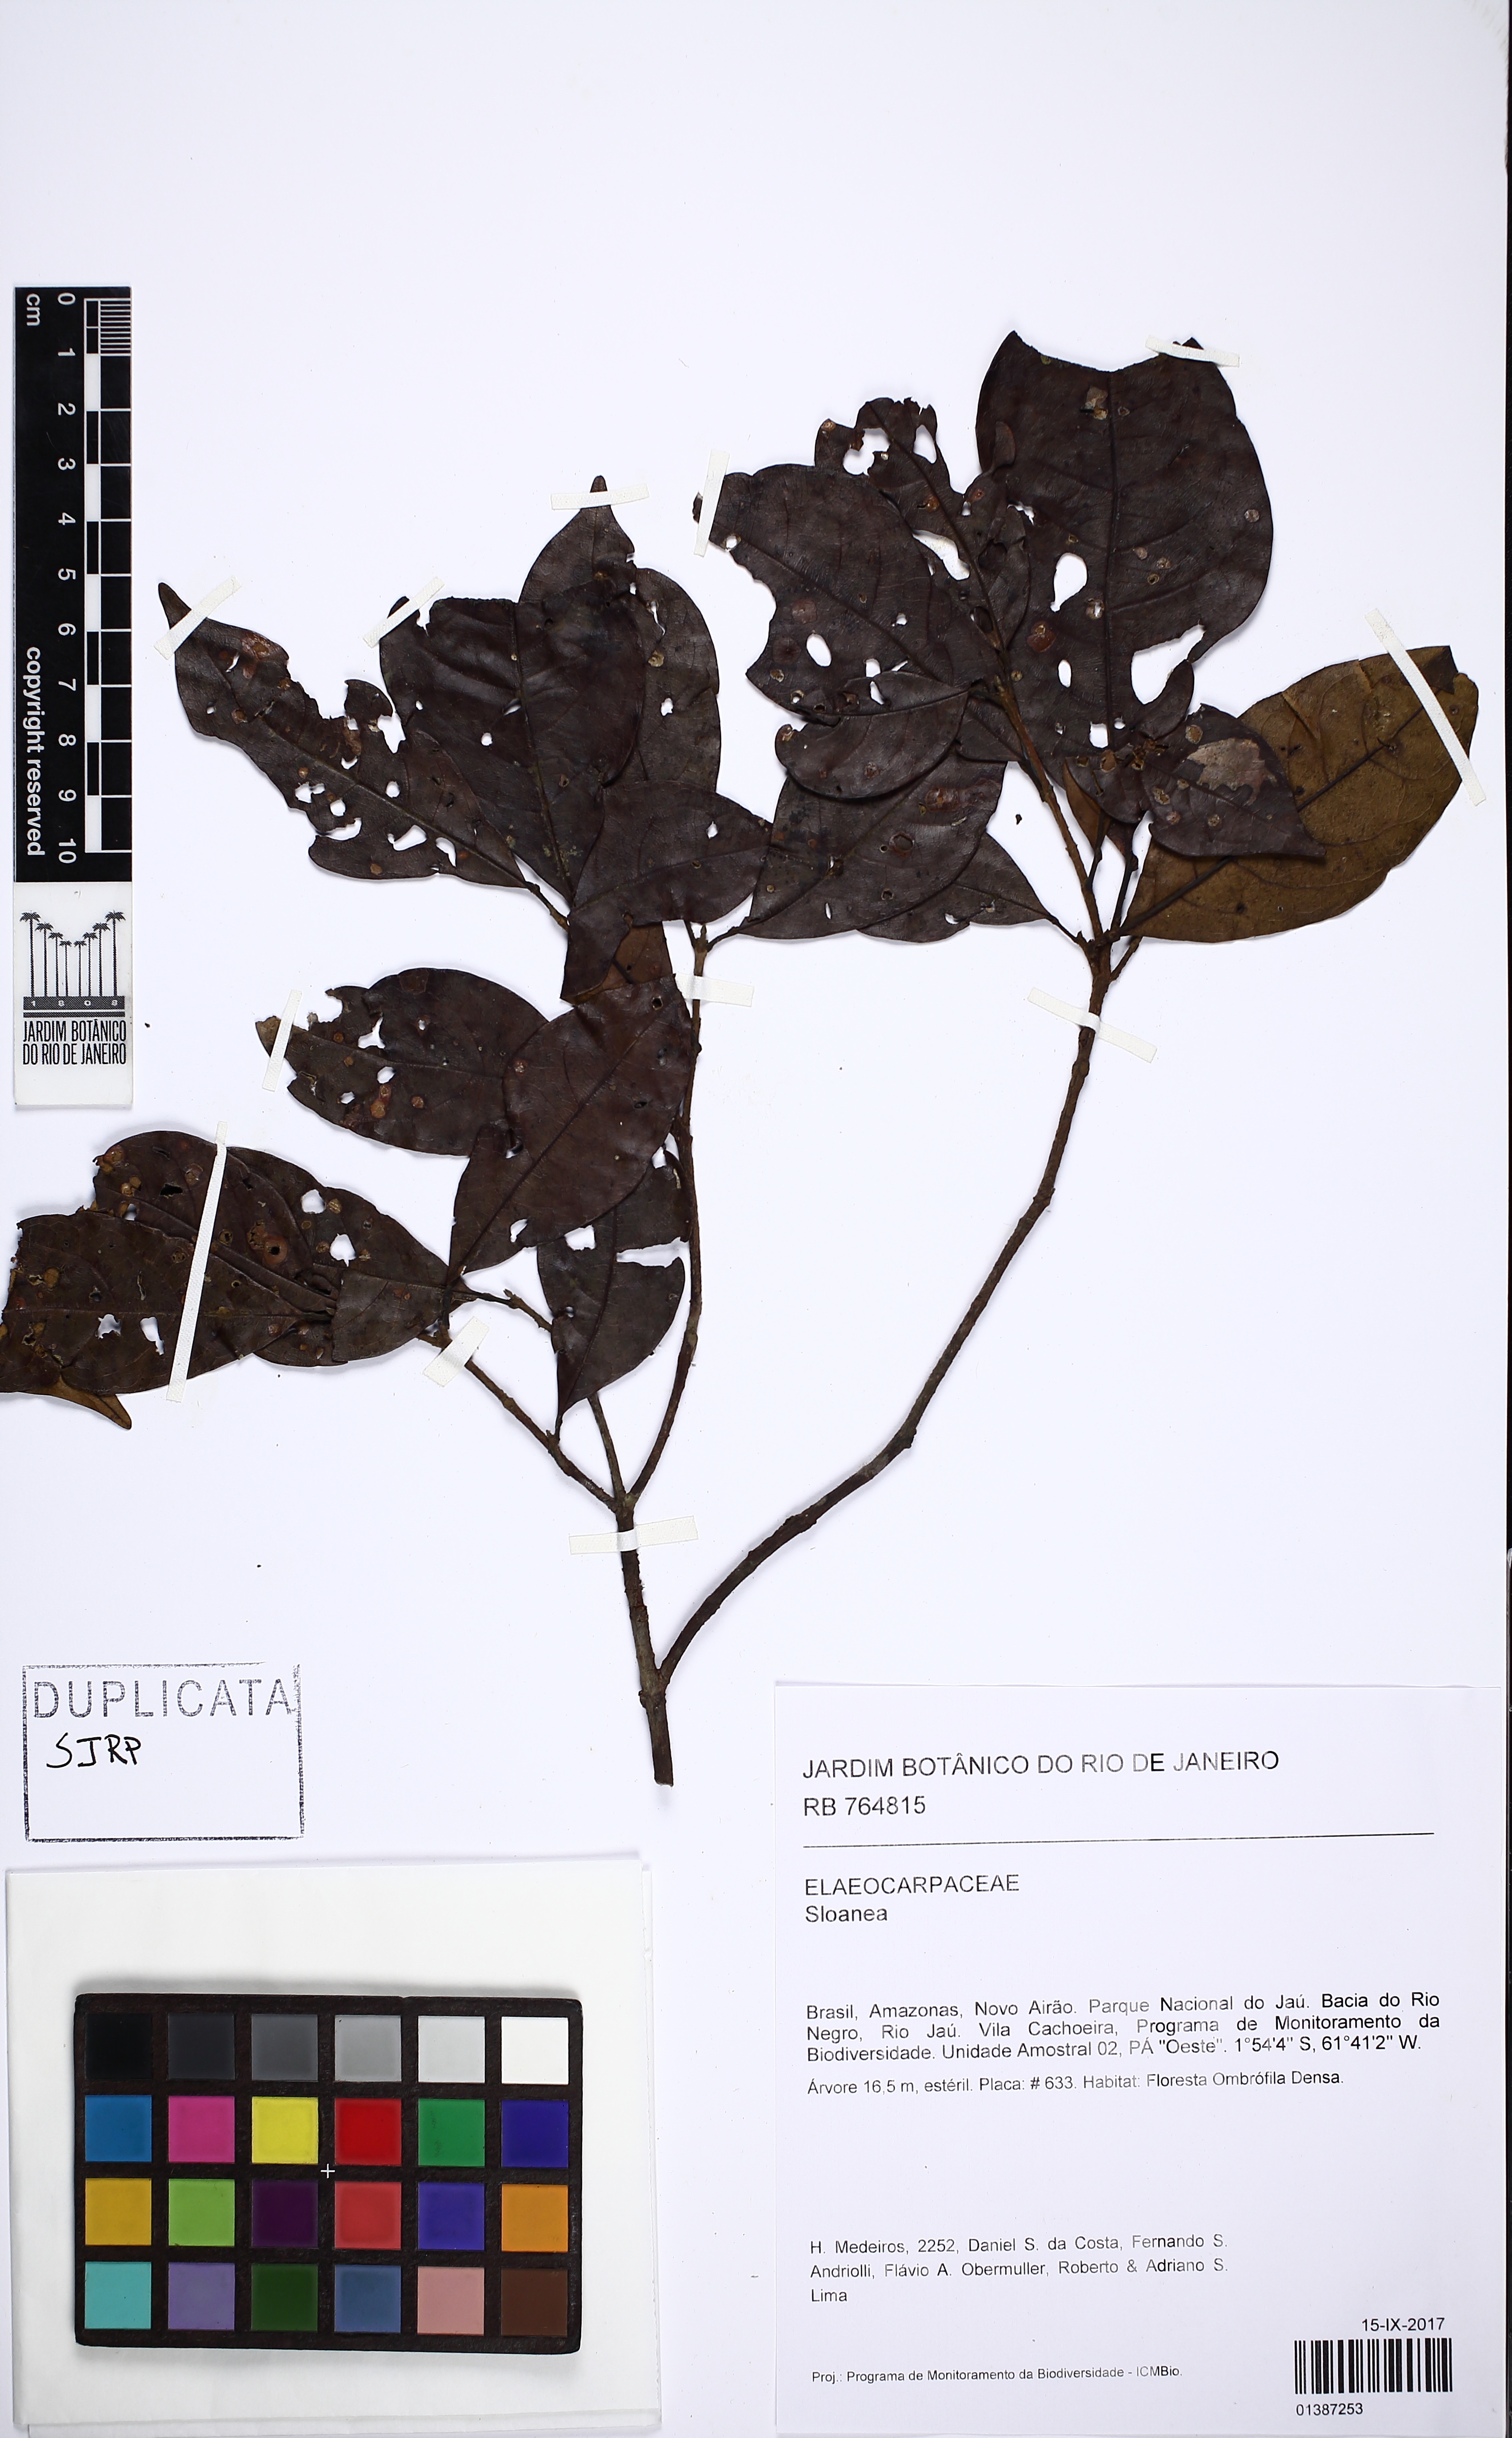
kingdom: Plantae
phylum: Tracheophyta
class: Magnoliopsida
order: Oxalidales
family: Elaeocarpaceae
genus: Sloanea
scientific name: Sloanea
